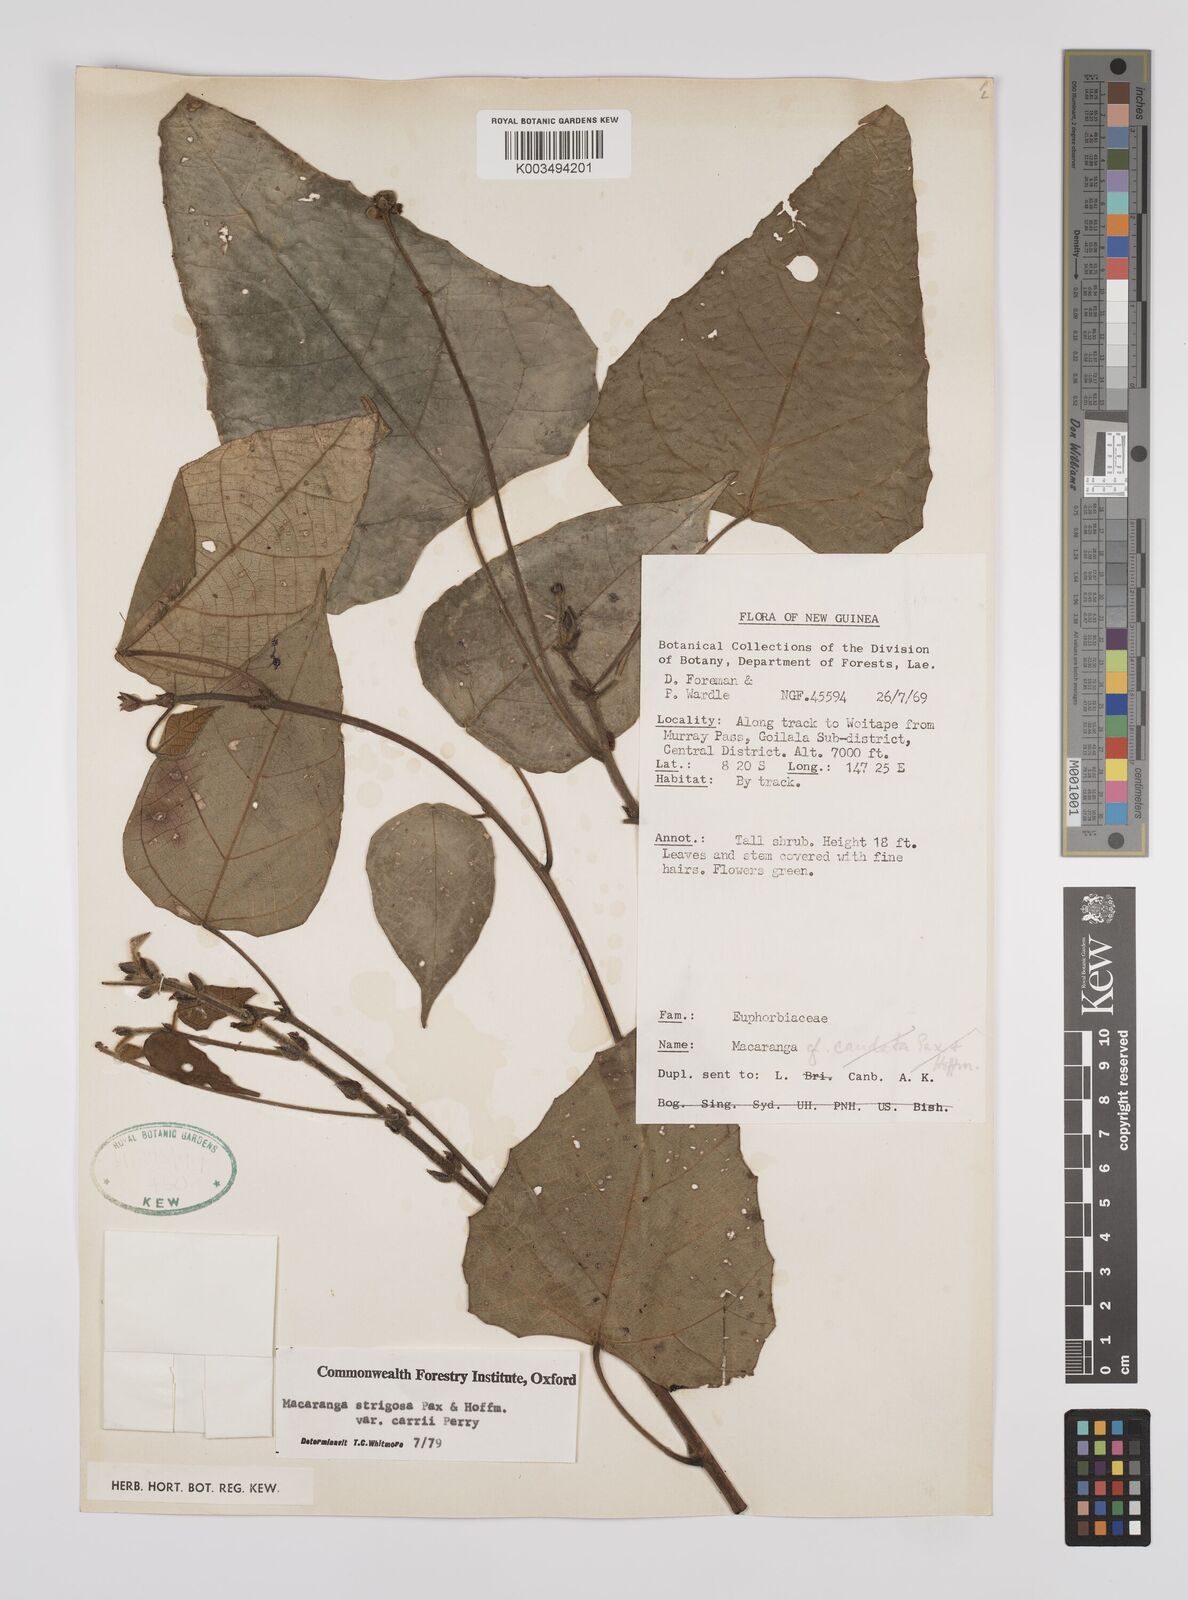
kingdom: Plantae
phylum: Tracheophyta
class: Magnoliopsida
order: Malpighiales
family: Euphorbiaceae
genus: Macaranga
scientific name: Macaranga strigosa
